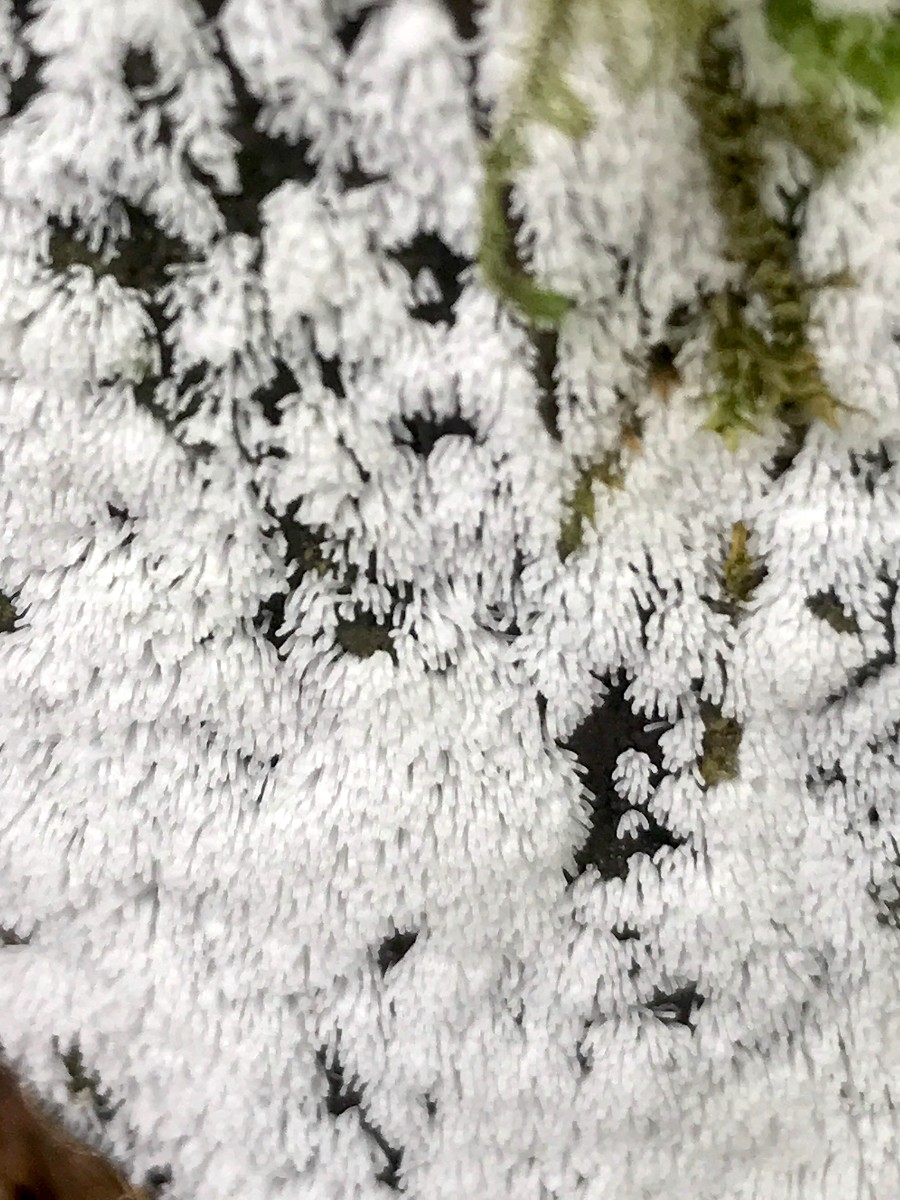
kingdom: Protozoa
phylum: Mycetozoa
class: Protosteliomycetes
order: Ceratiomyxales
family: Ceratiomyxaceae
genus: Ceratiomyxa
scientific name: Ceratiomyxa fruticulosa
